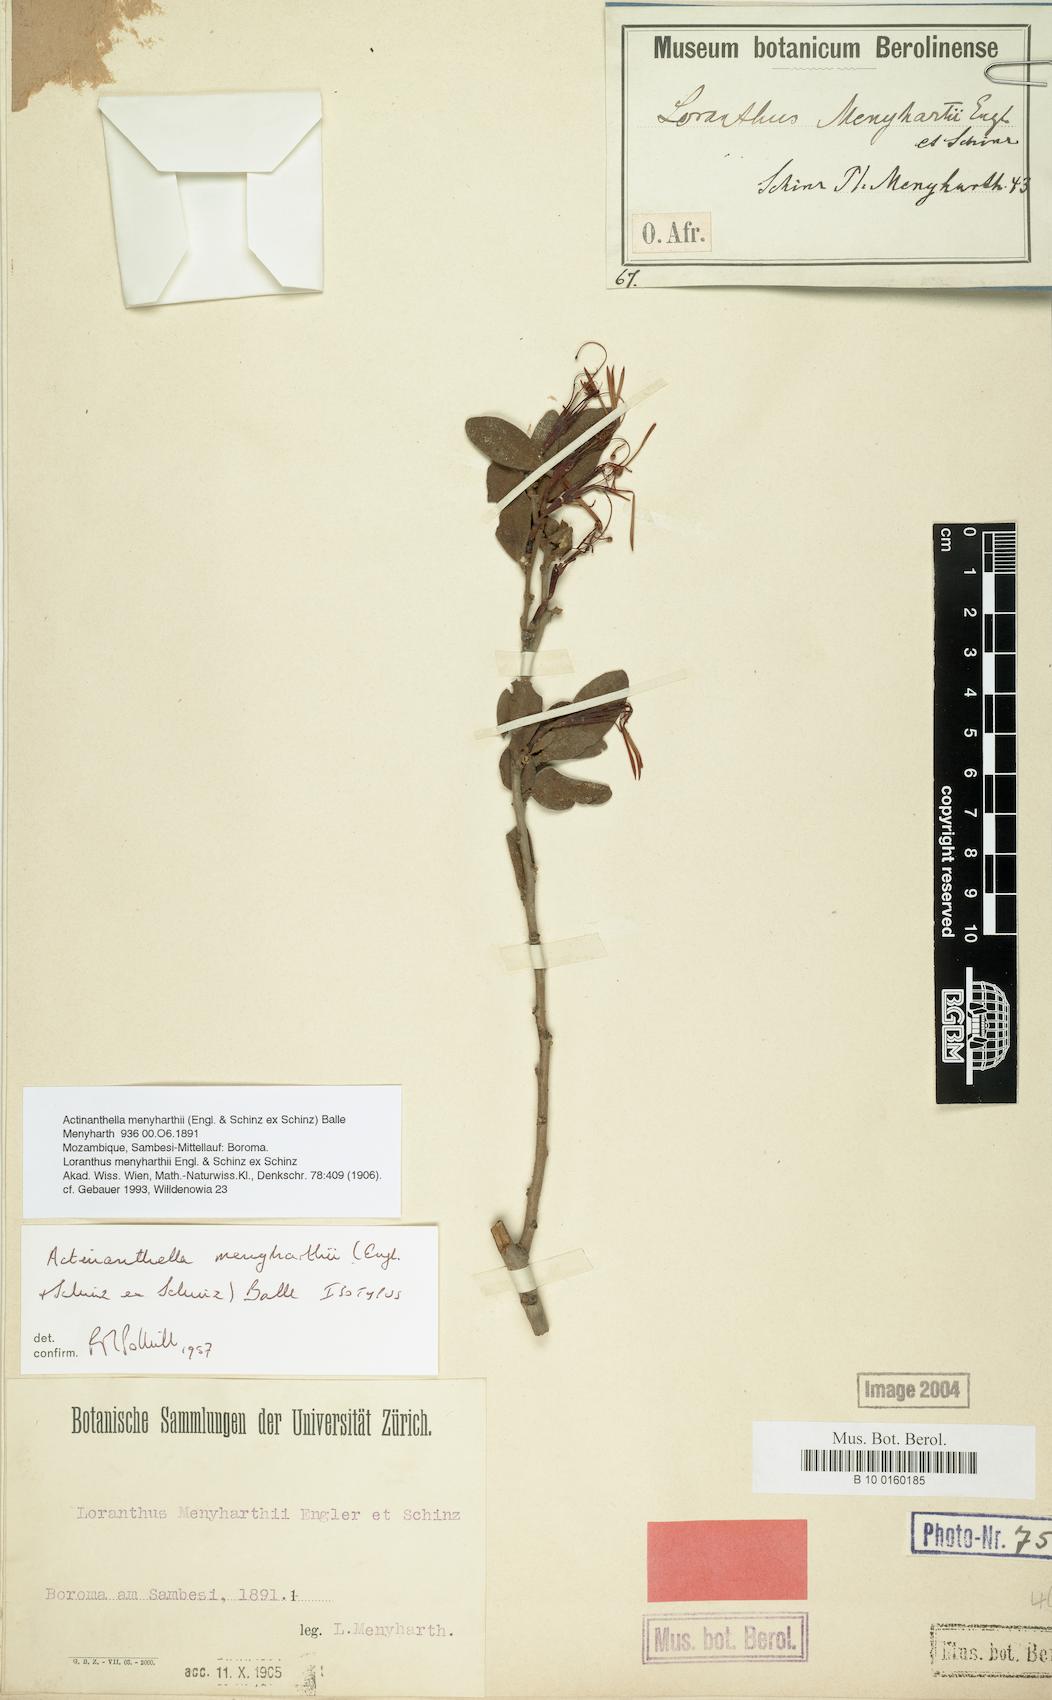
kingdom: Plantae
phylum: Tracheophyta
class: Magnoliopsida
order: Santalales
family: Loranthaceae
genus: Actinanthella
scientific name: Actinanthella menyharthii
